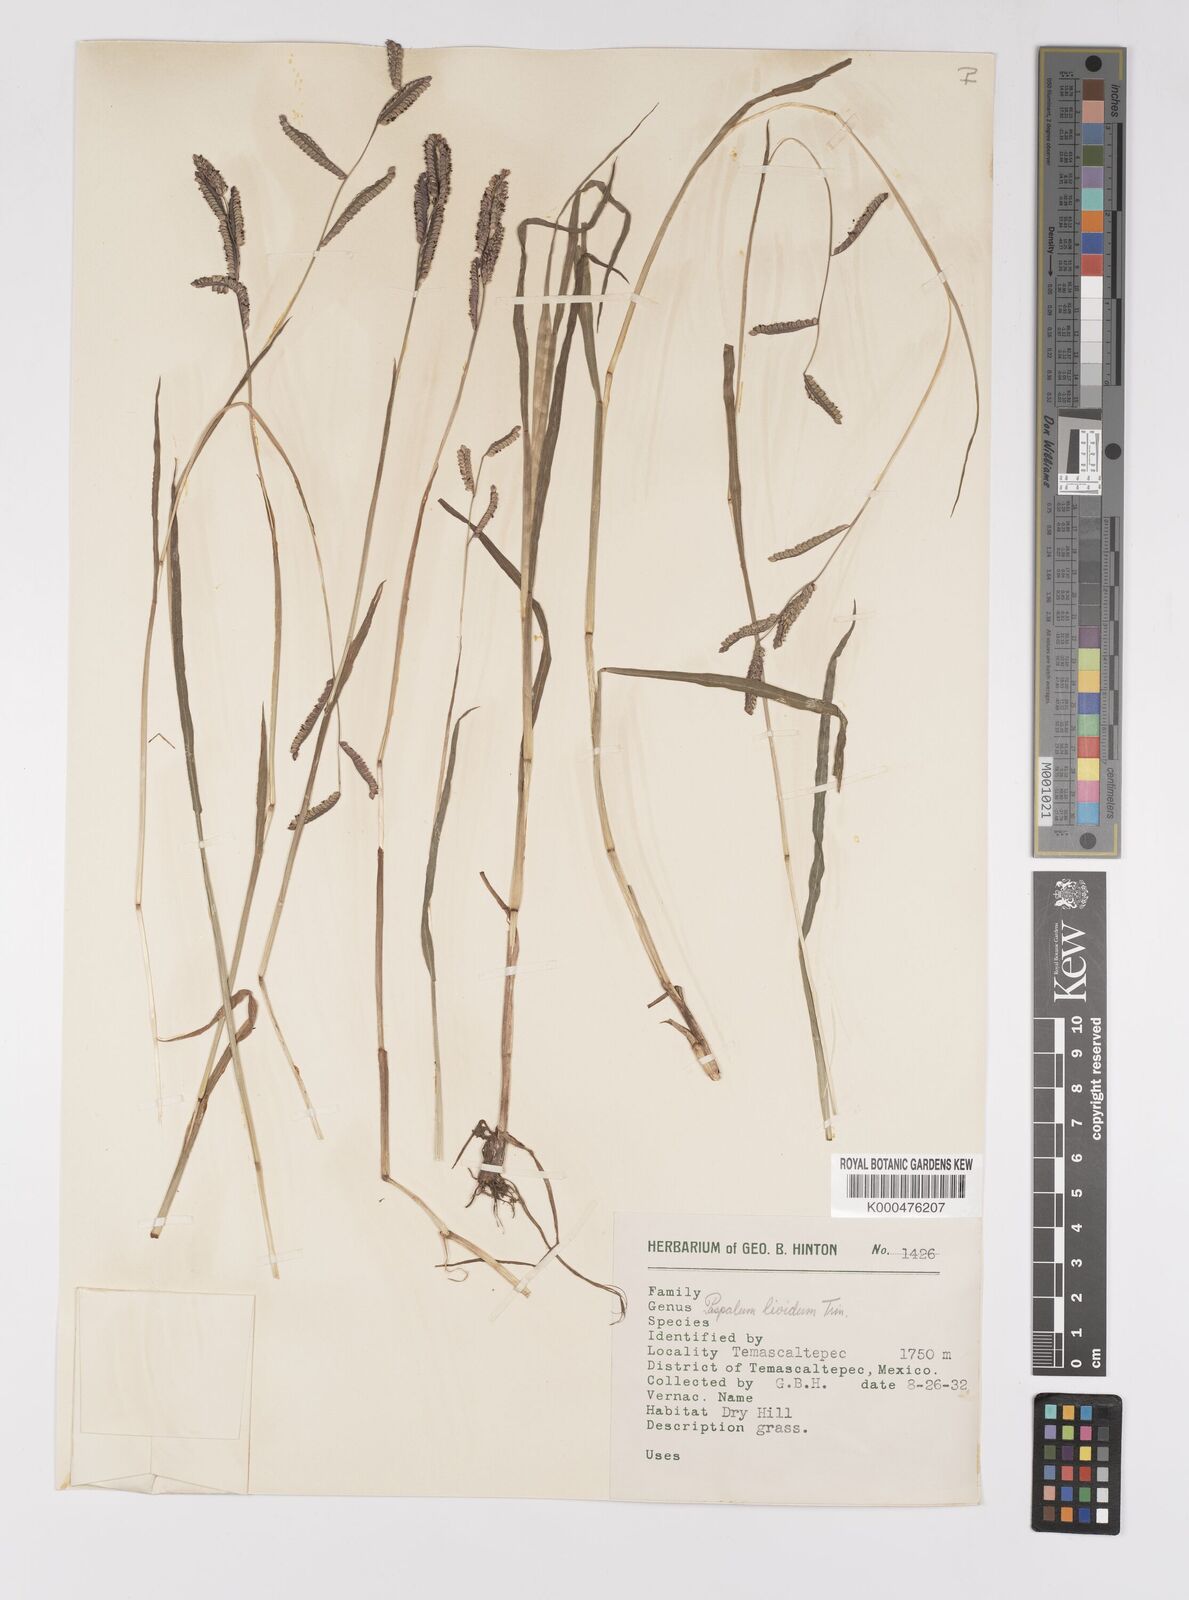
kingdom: Plantae
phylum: Tracheophyta
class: Liliopsida
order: Poales
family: Poaceae
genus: Paspalum
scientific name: Paspalum denticulatum
